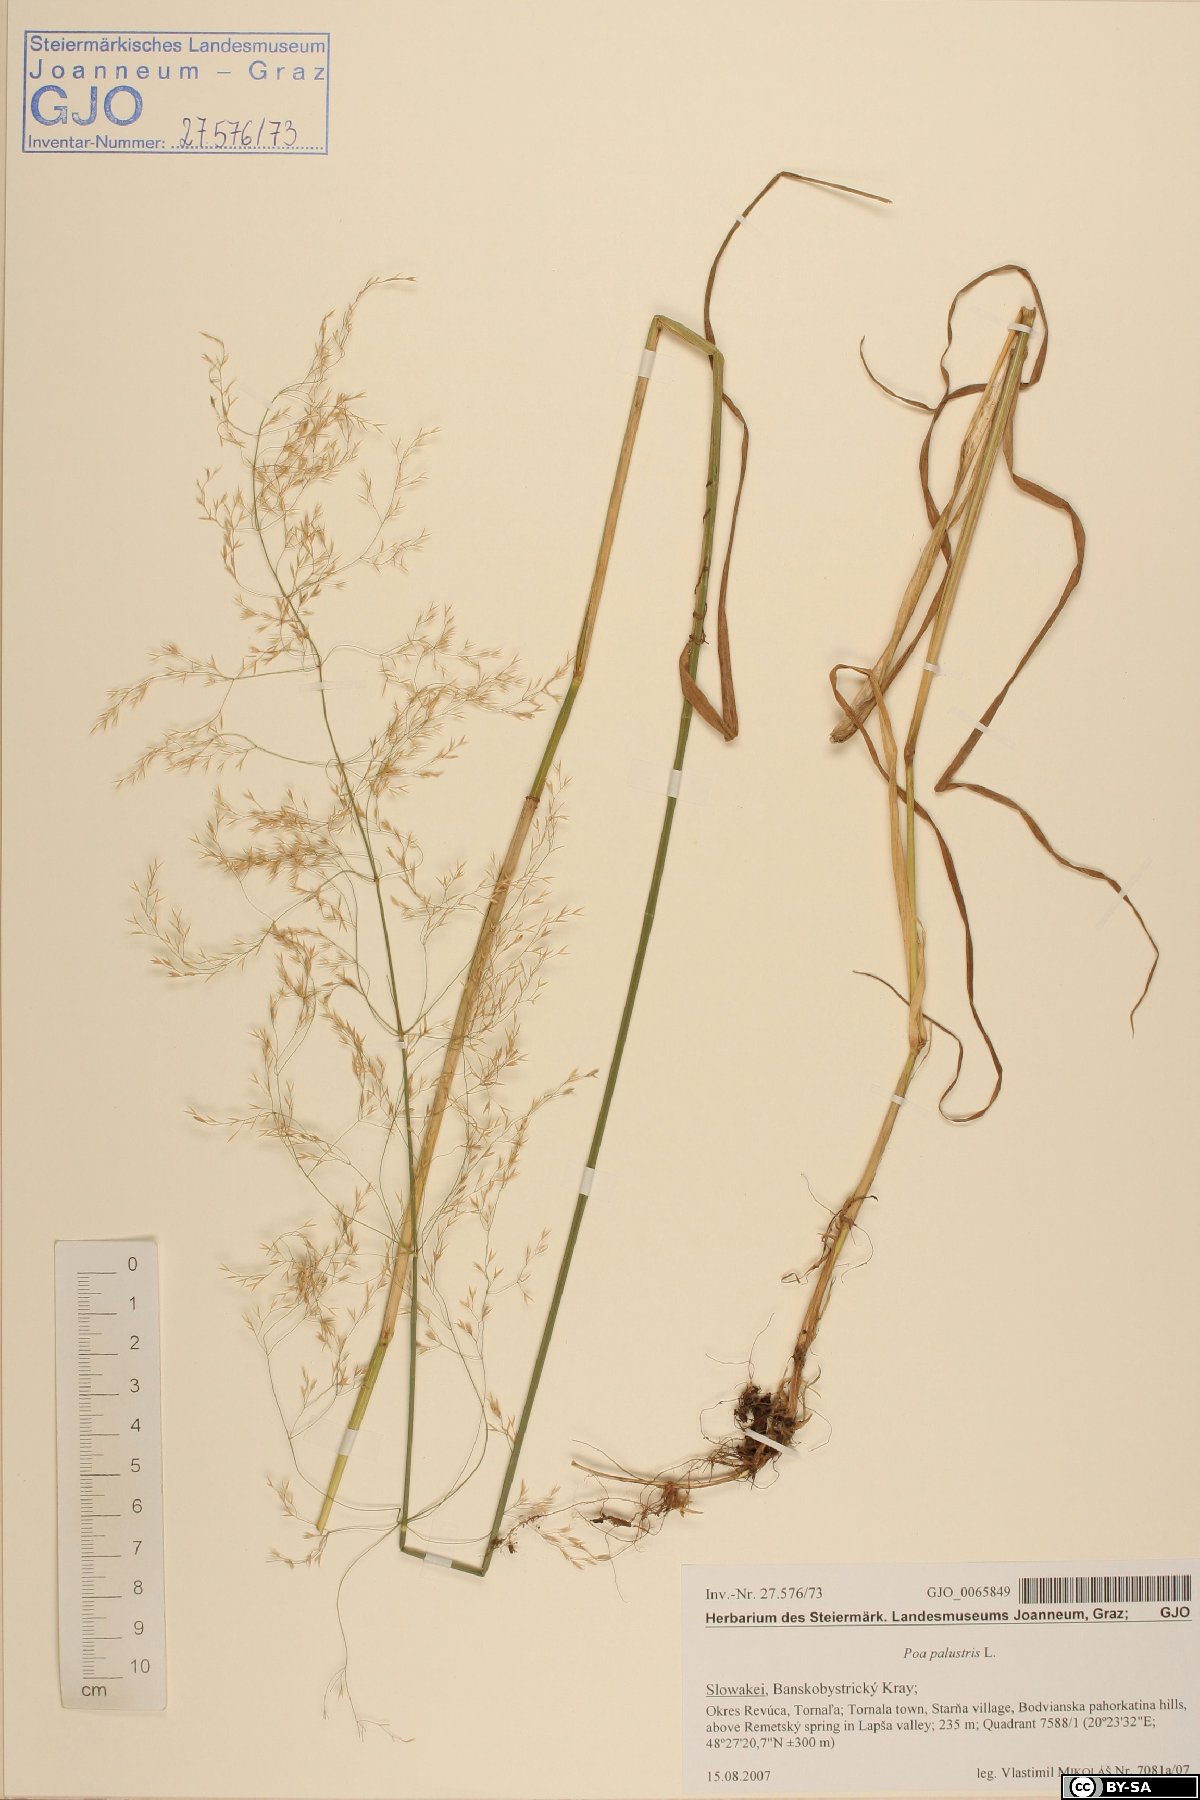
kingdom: Plantae
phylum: Tracheophyta
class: Liliopsida
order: Poales
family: Poaceae
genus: Poa
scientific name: Poa palustris
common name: Swamp meadow-grass
